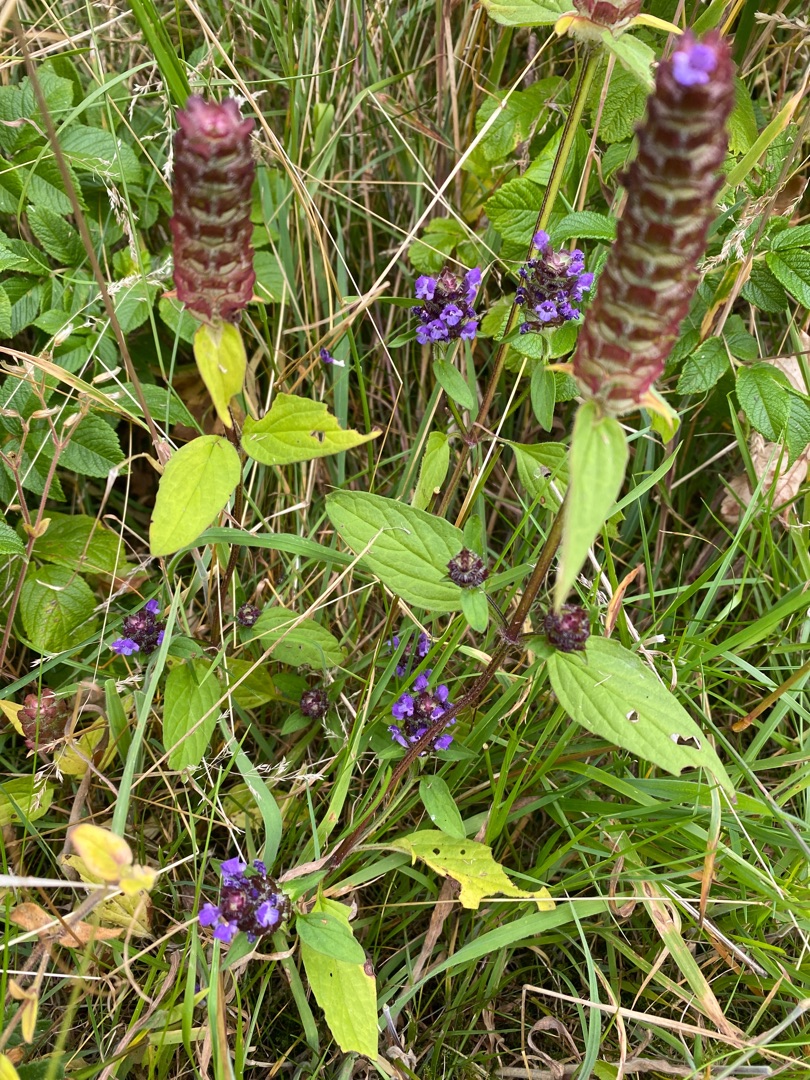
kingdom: Plantae
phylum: Tracheophyta
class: Magnoliopsida
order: Lamiales
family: Lamiaceae
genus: Prunella
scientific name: Prunella vulgaris
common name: Almindelig brunelle
